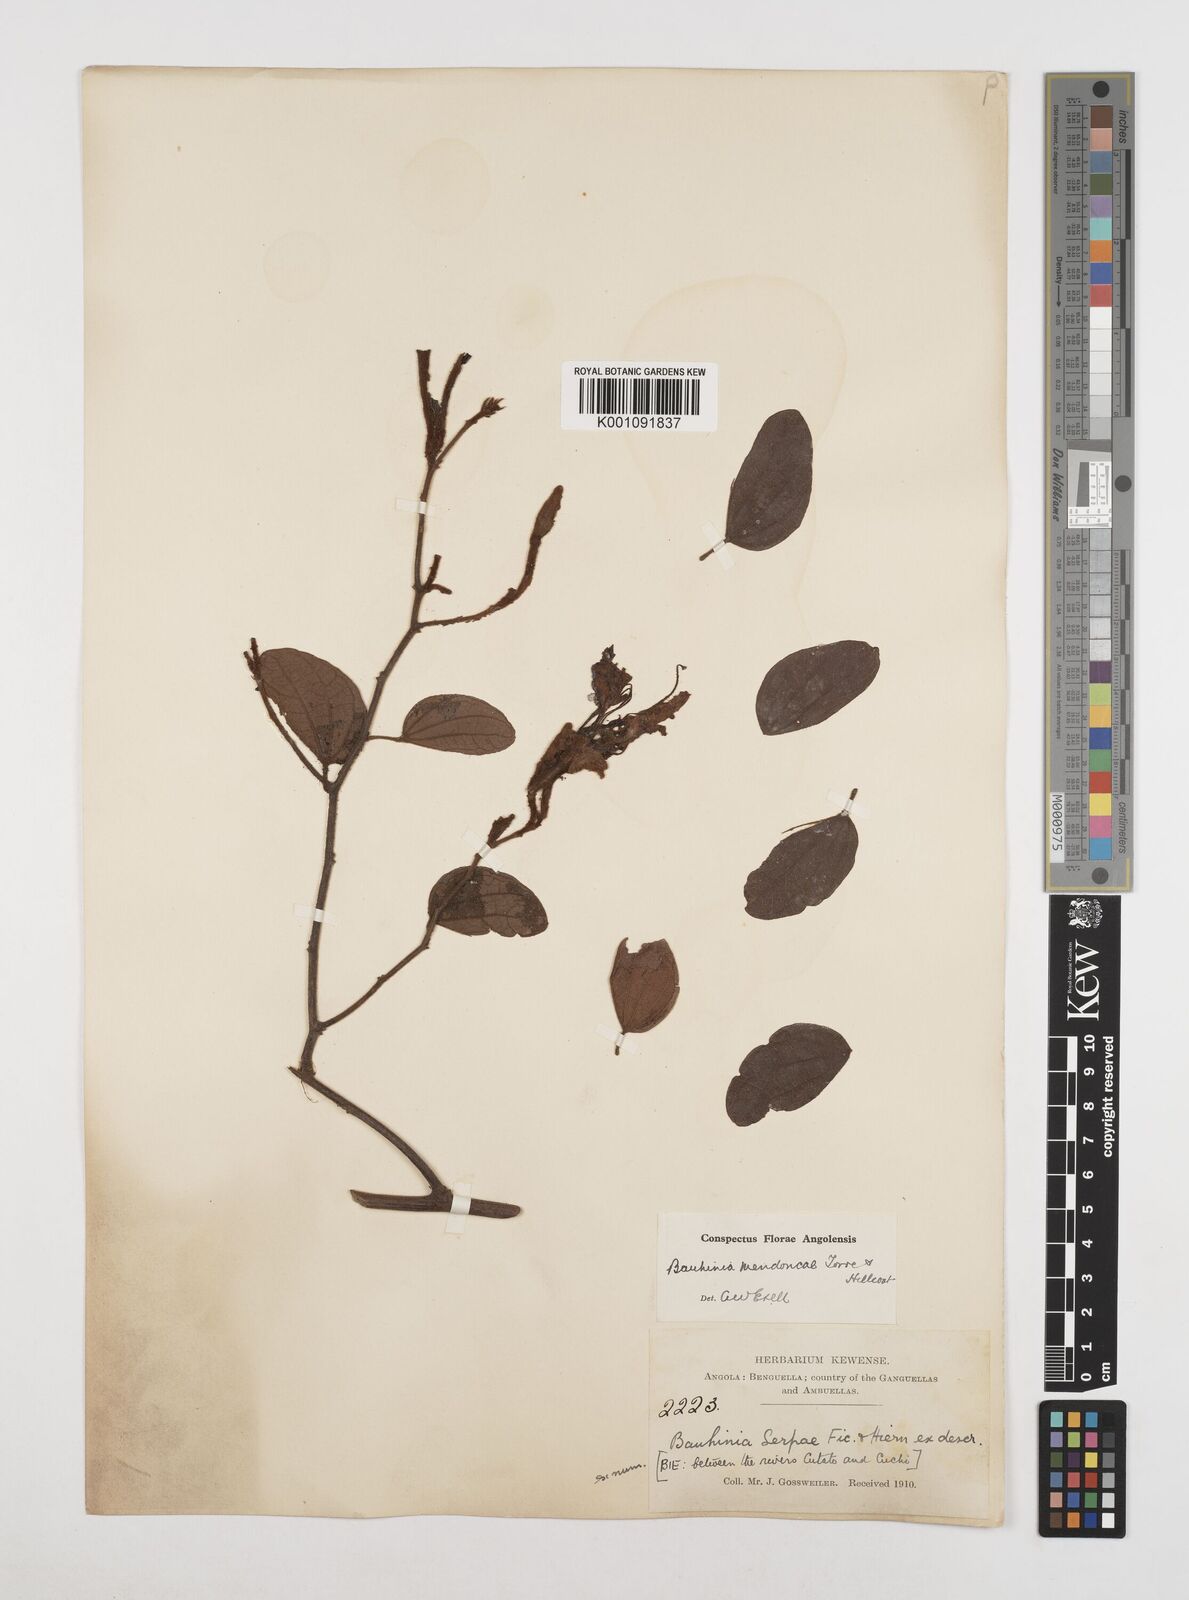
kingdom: Plantae
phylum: Tracheophyta
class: Magnoliopsida
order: Fabales
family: Fabaceae
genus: Bauhinia
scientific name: Bauhinia mendoncae
